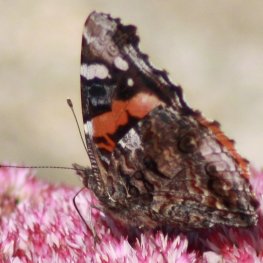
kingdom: Animalia
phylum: Arthropoda
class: Insecta
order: Lepidoptera
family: Nymphalidae
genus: Vanessa
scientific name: Vanessa atalanta
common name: Red Admiral
